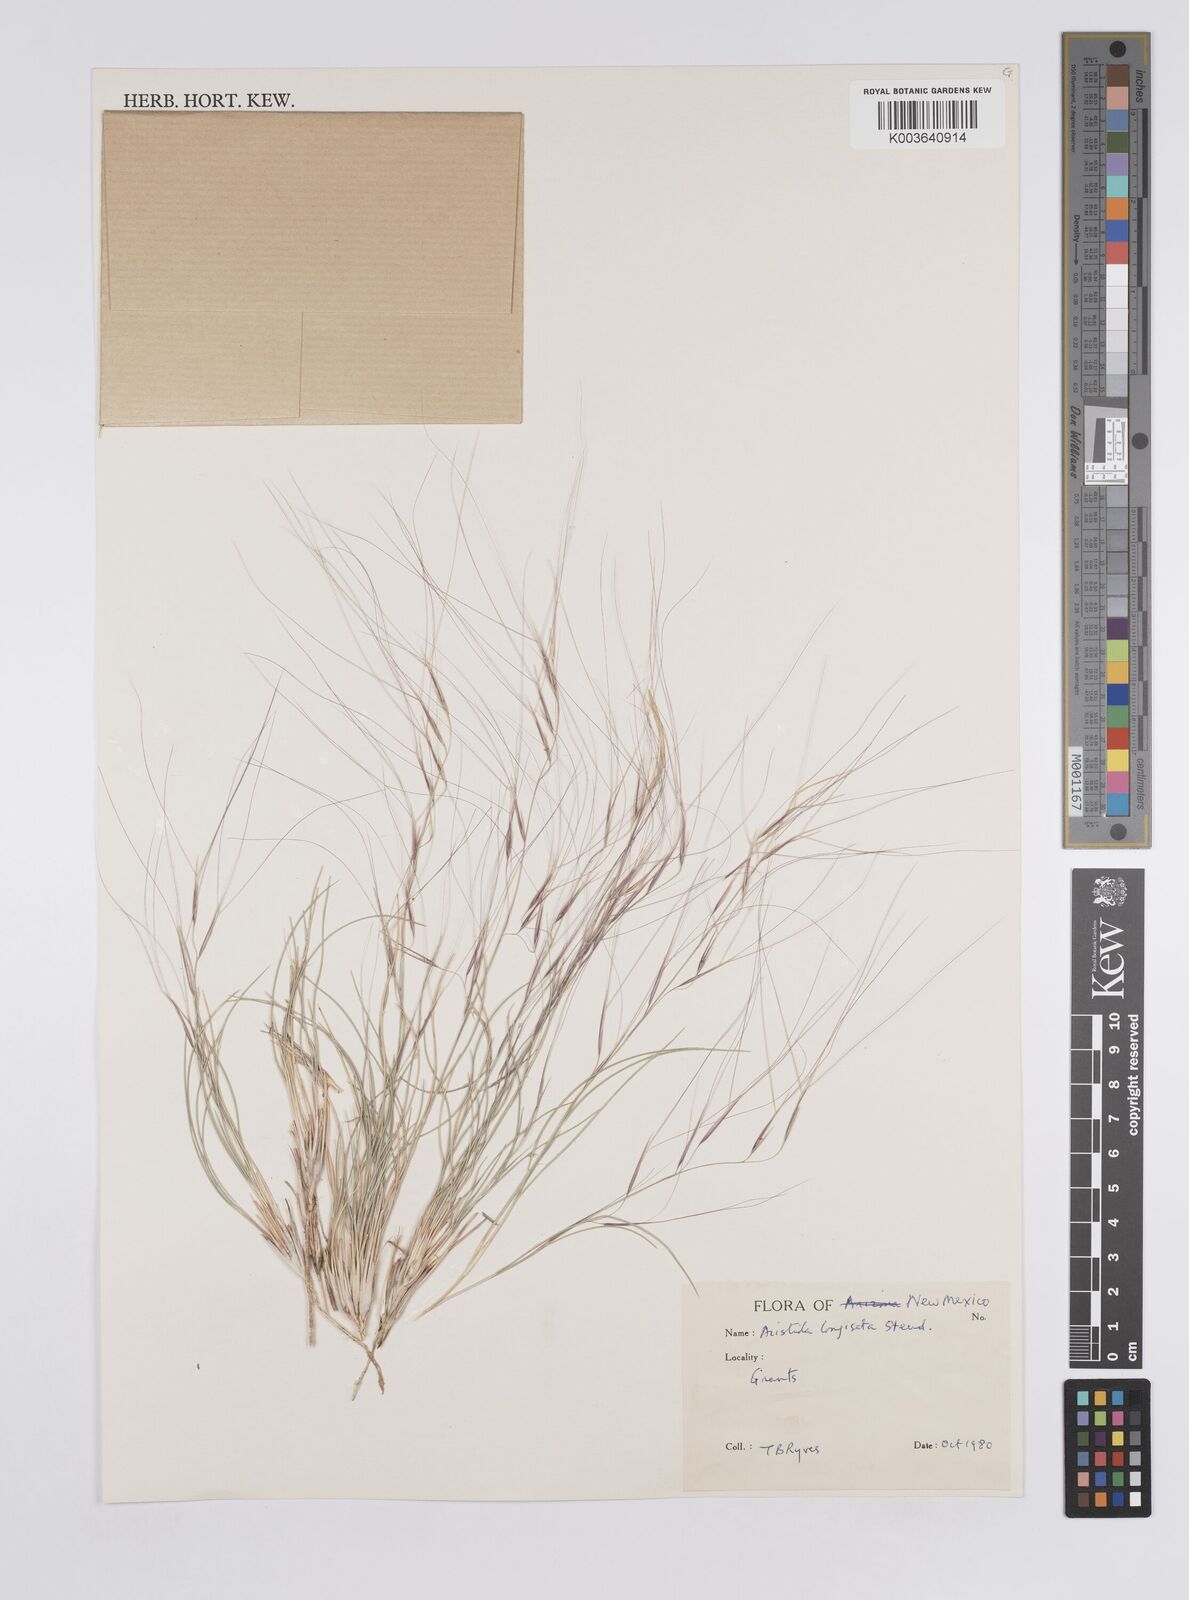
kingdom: Plantae
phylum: Tracheophyta
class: Liliopsida
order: Poales
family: Poaceae
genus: Aristida
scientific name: Aristida purpurea
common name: Purple threeawn
